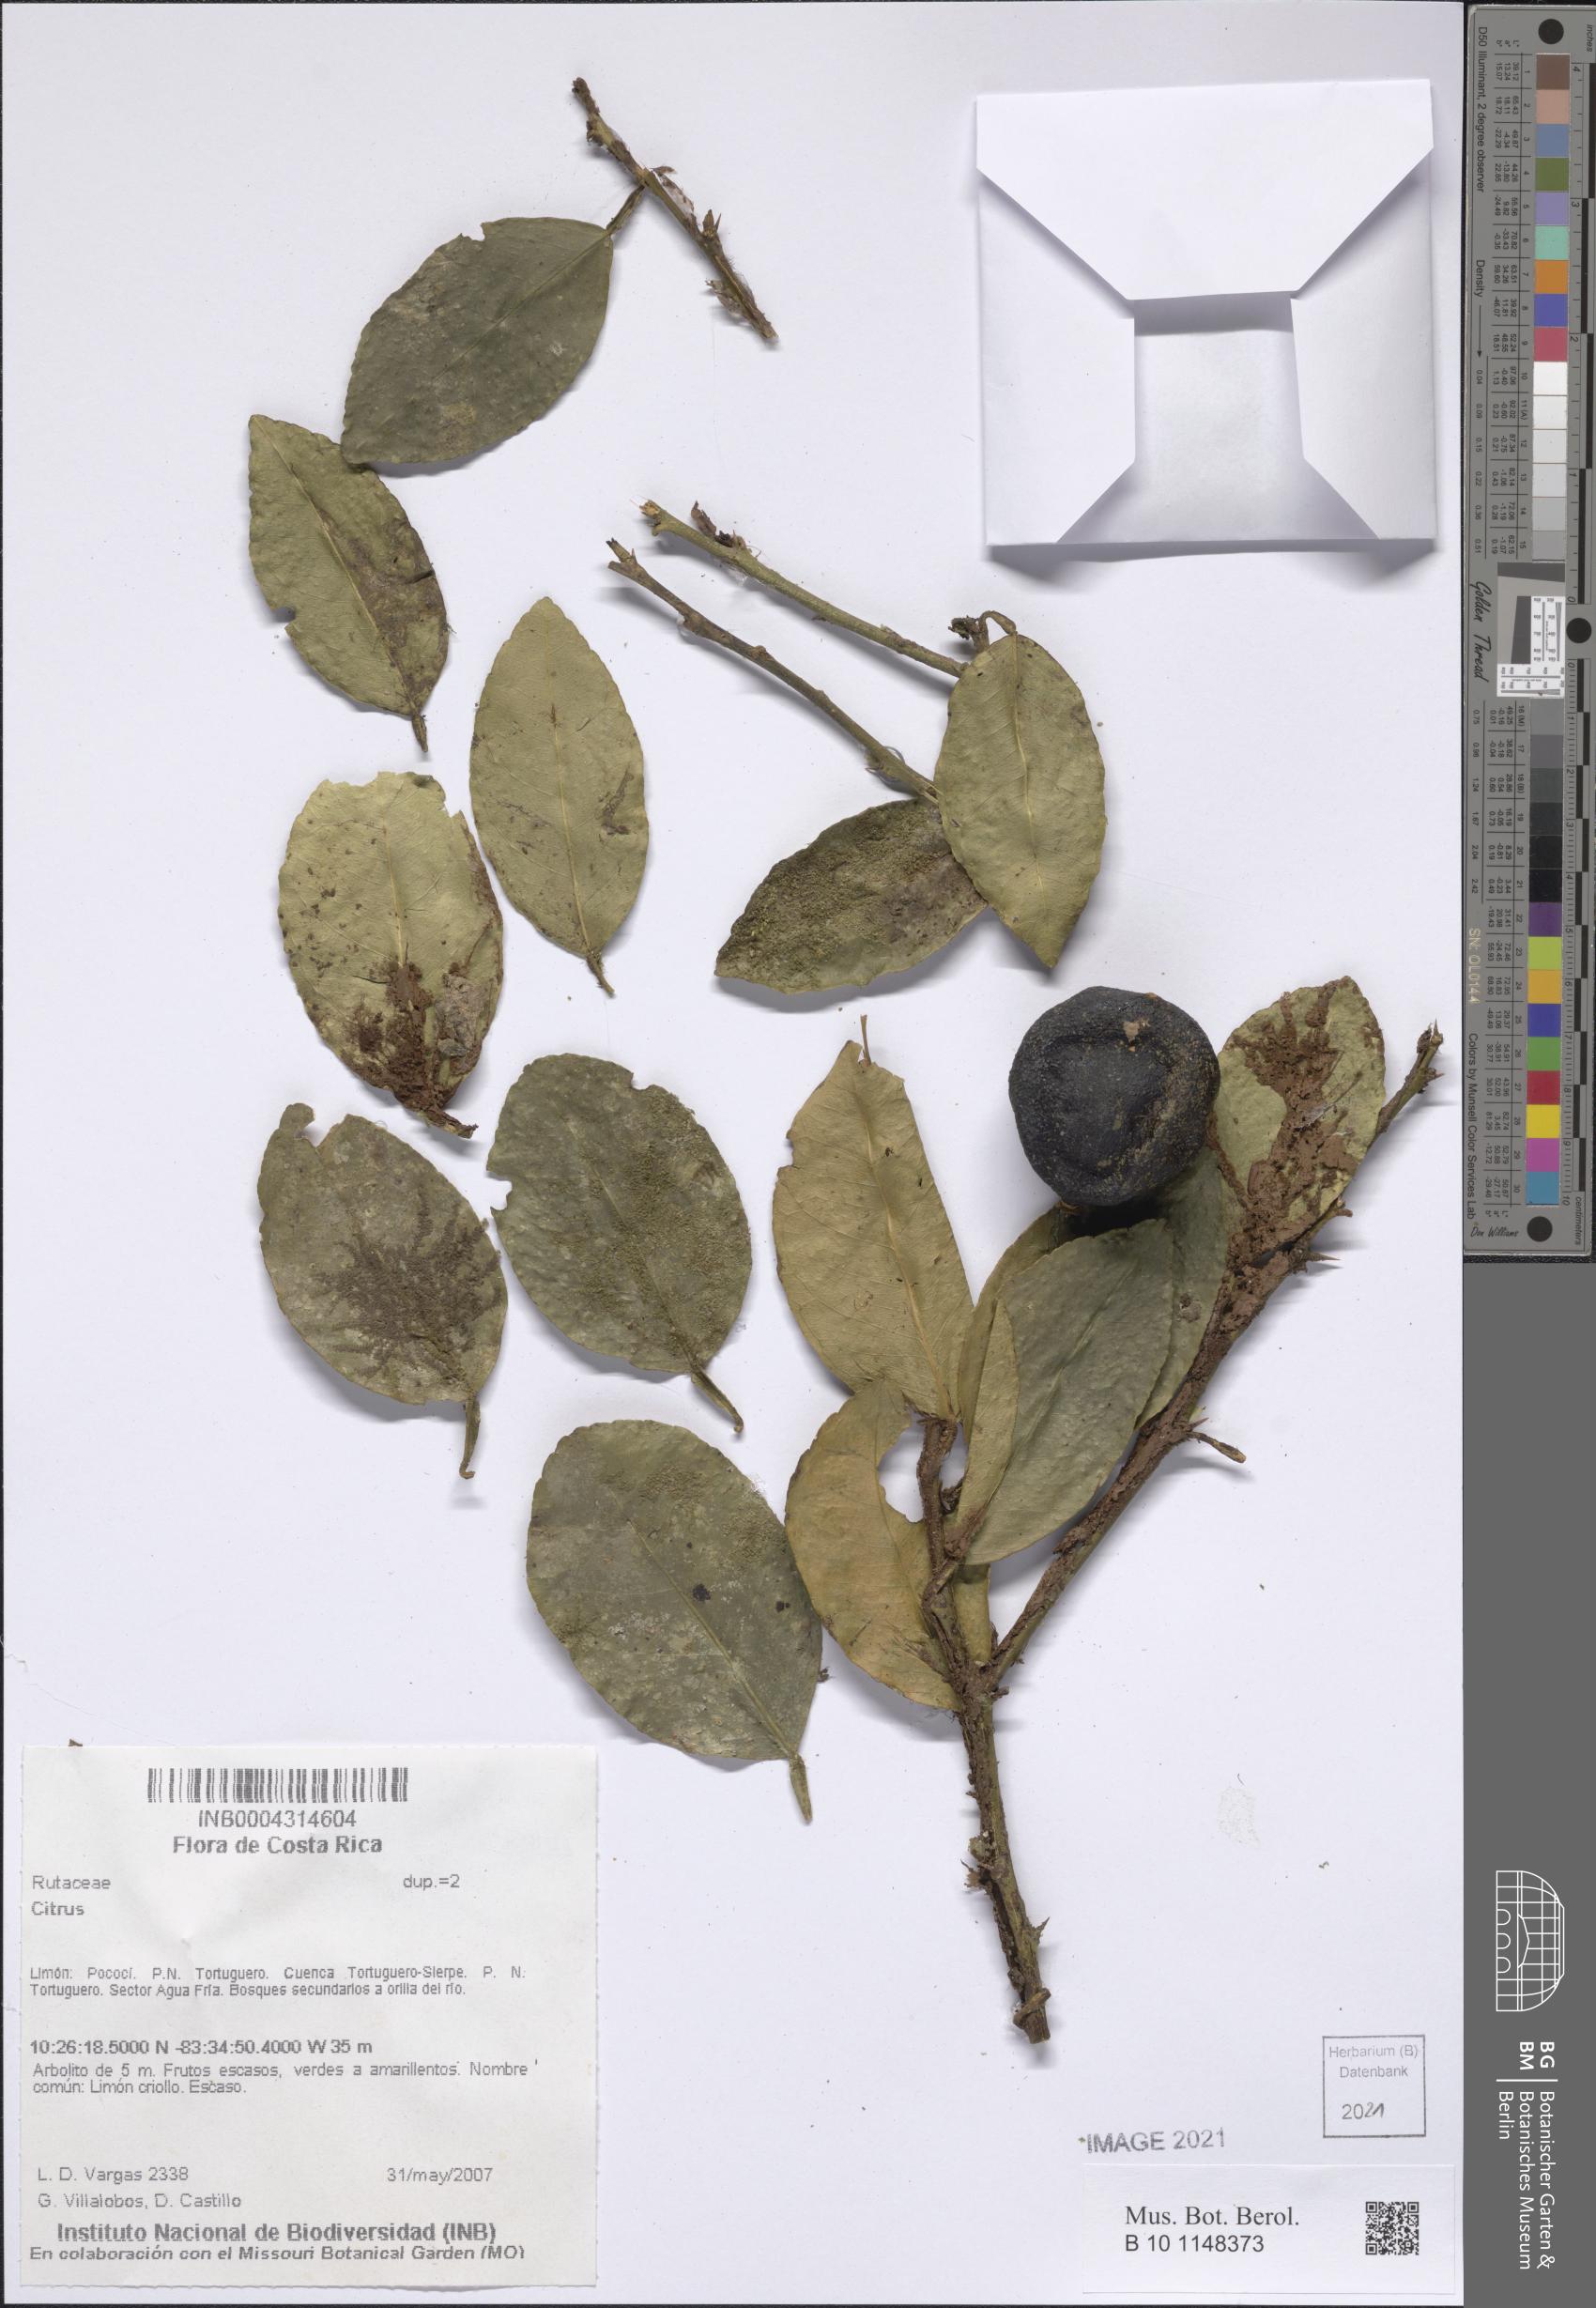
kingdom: Plantae
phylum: Tracheophyta
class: Magnoliopsida
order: Sapindales
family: Rutaceae
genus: Citrus
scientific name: Citrus
